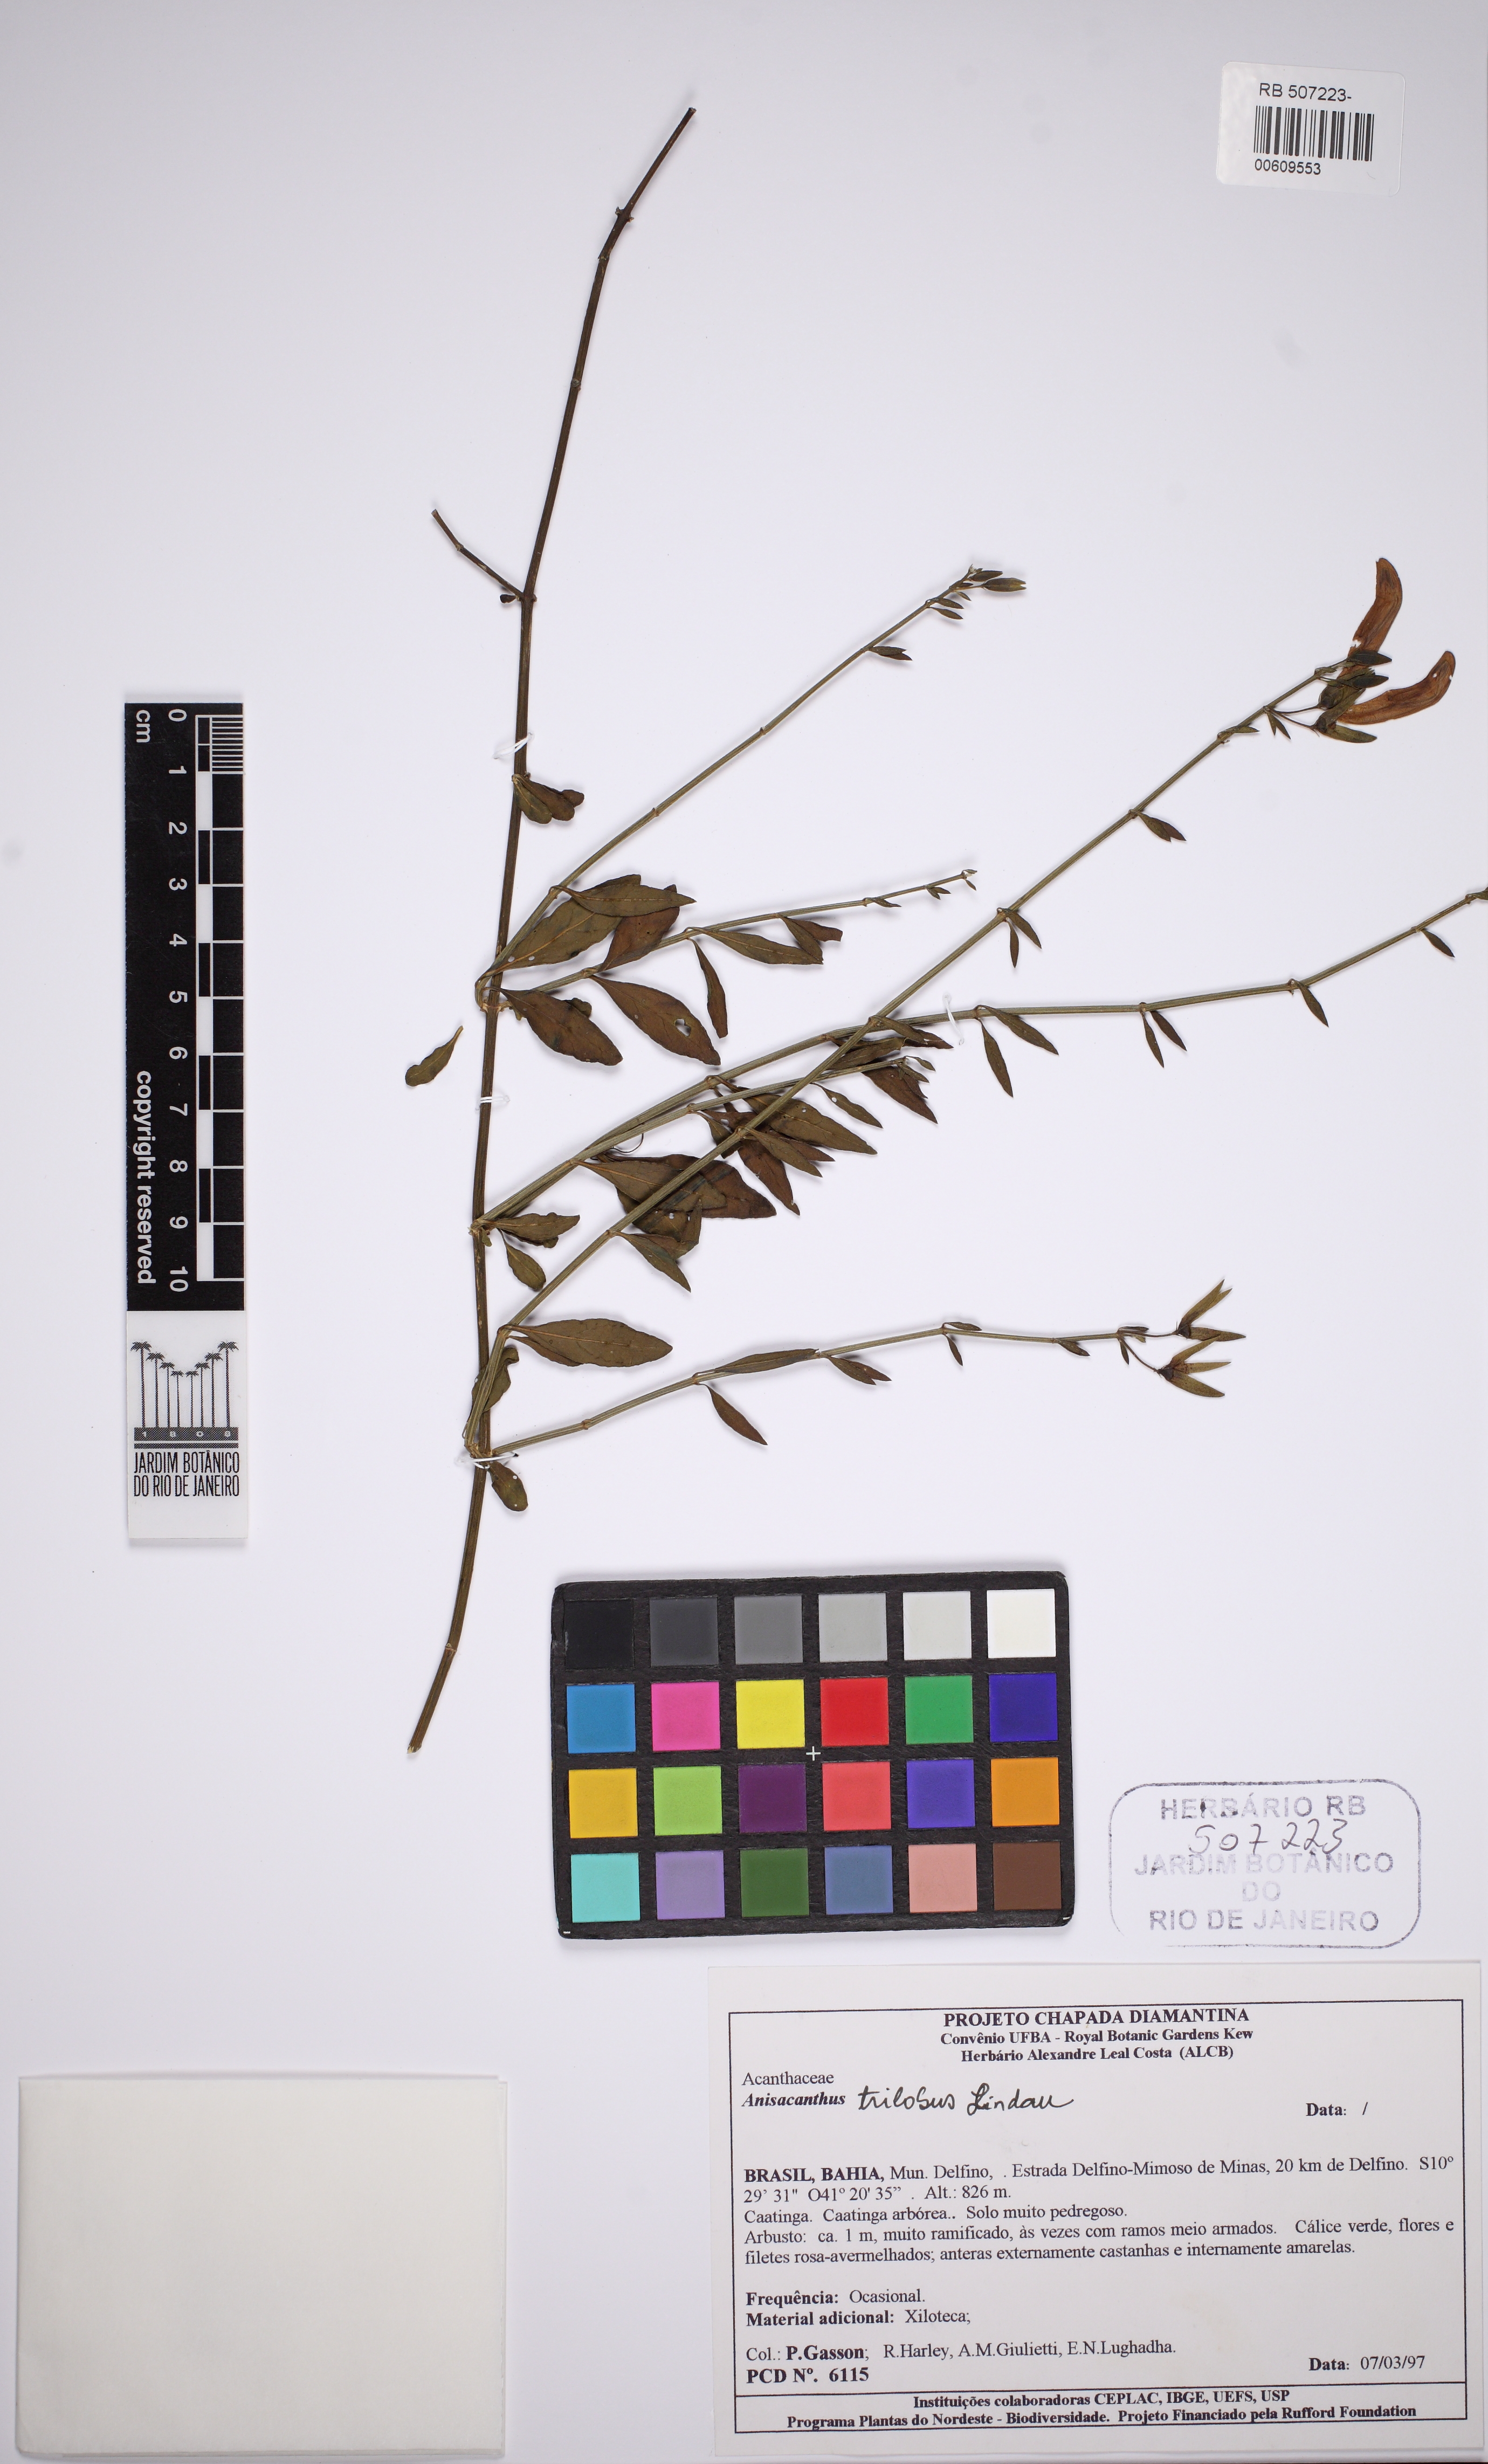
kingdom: Plantae
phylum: Tracheophyta
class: Magnoliopsida
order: Lamiales
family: Acanthaceae
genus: Justicia
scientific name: Justicia triloba
